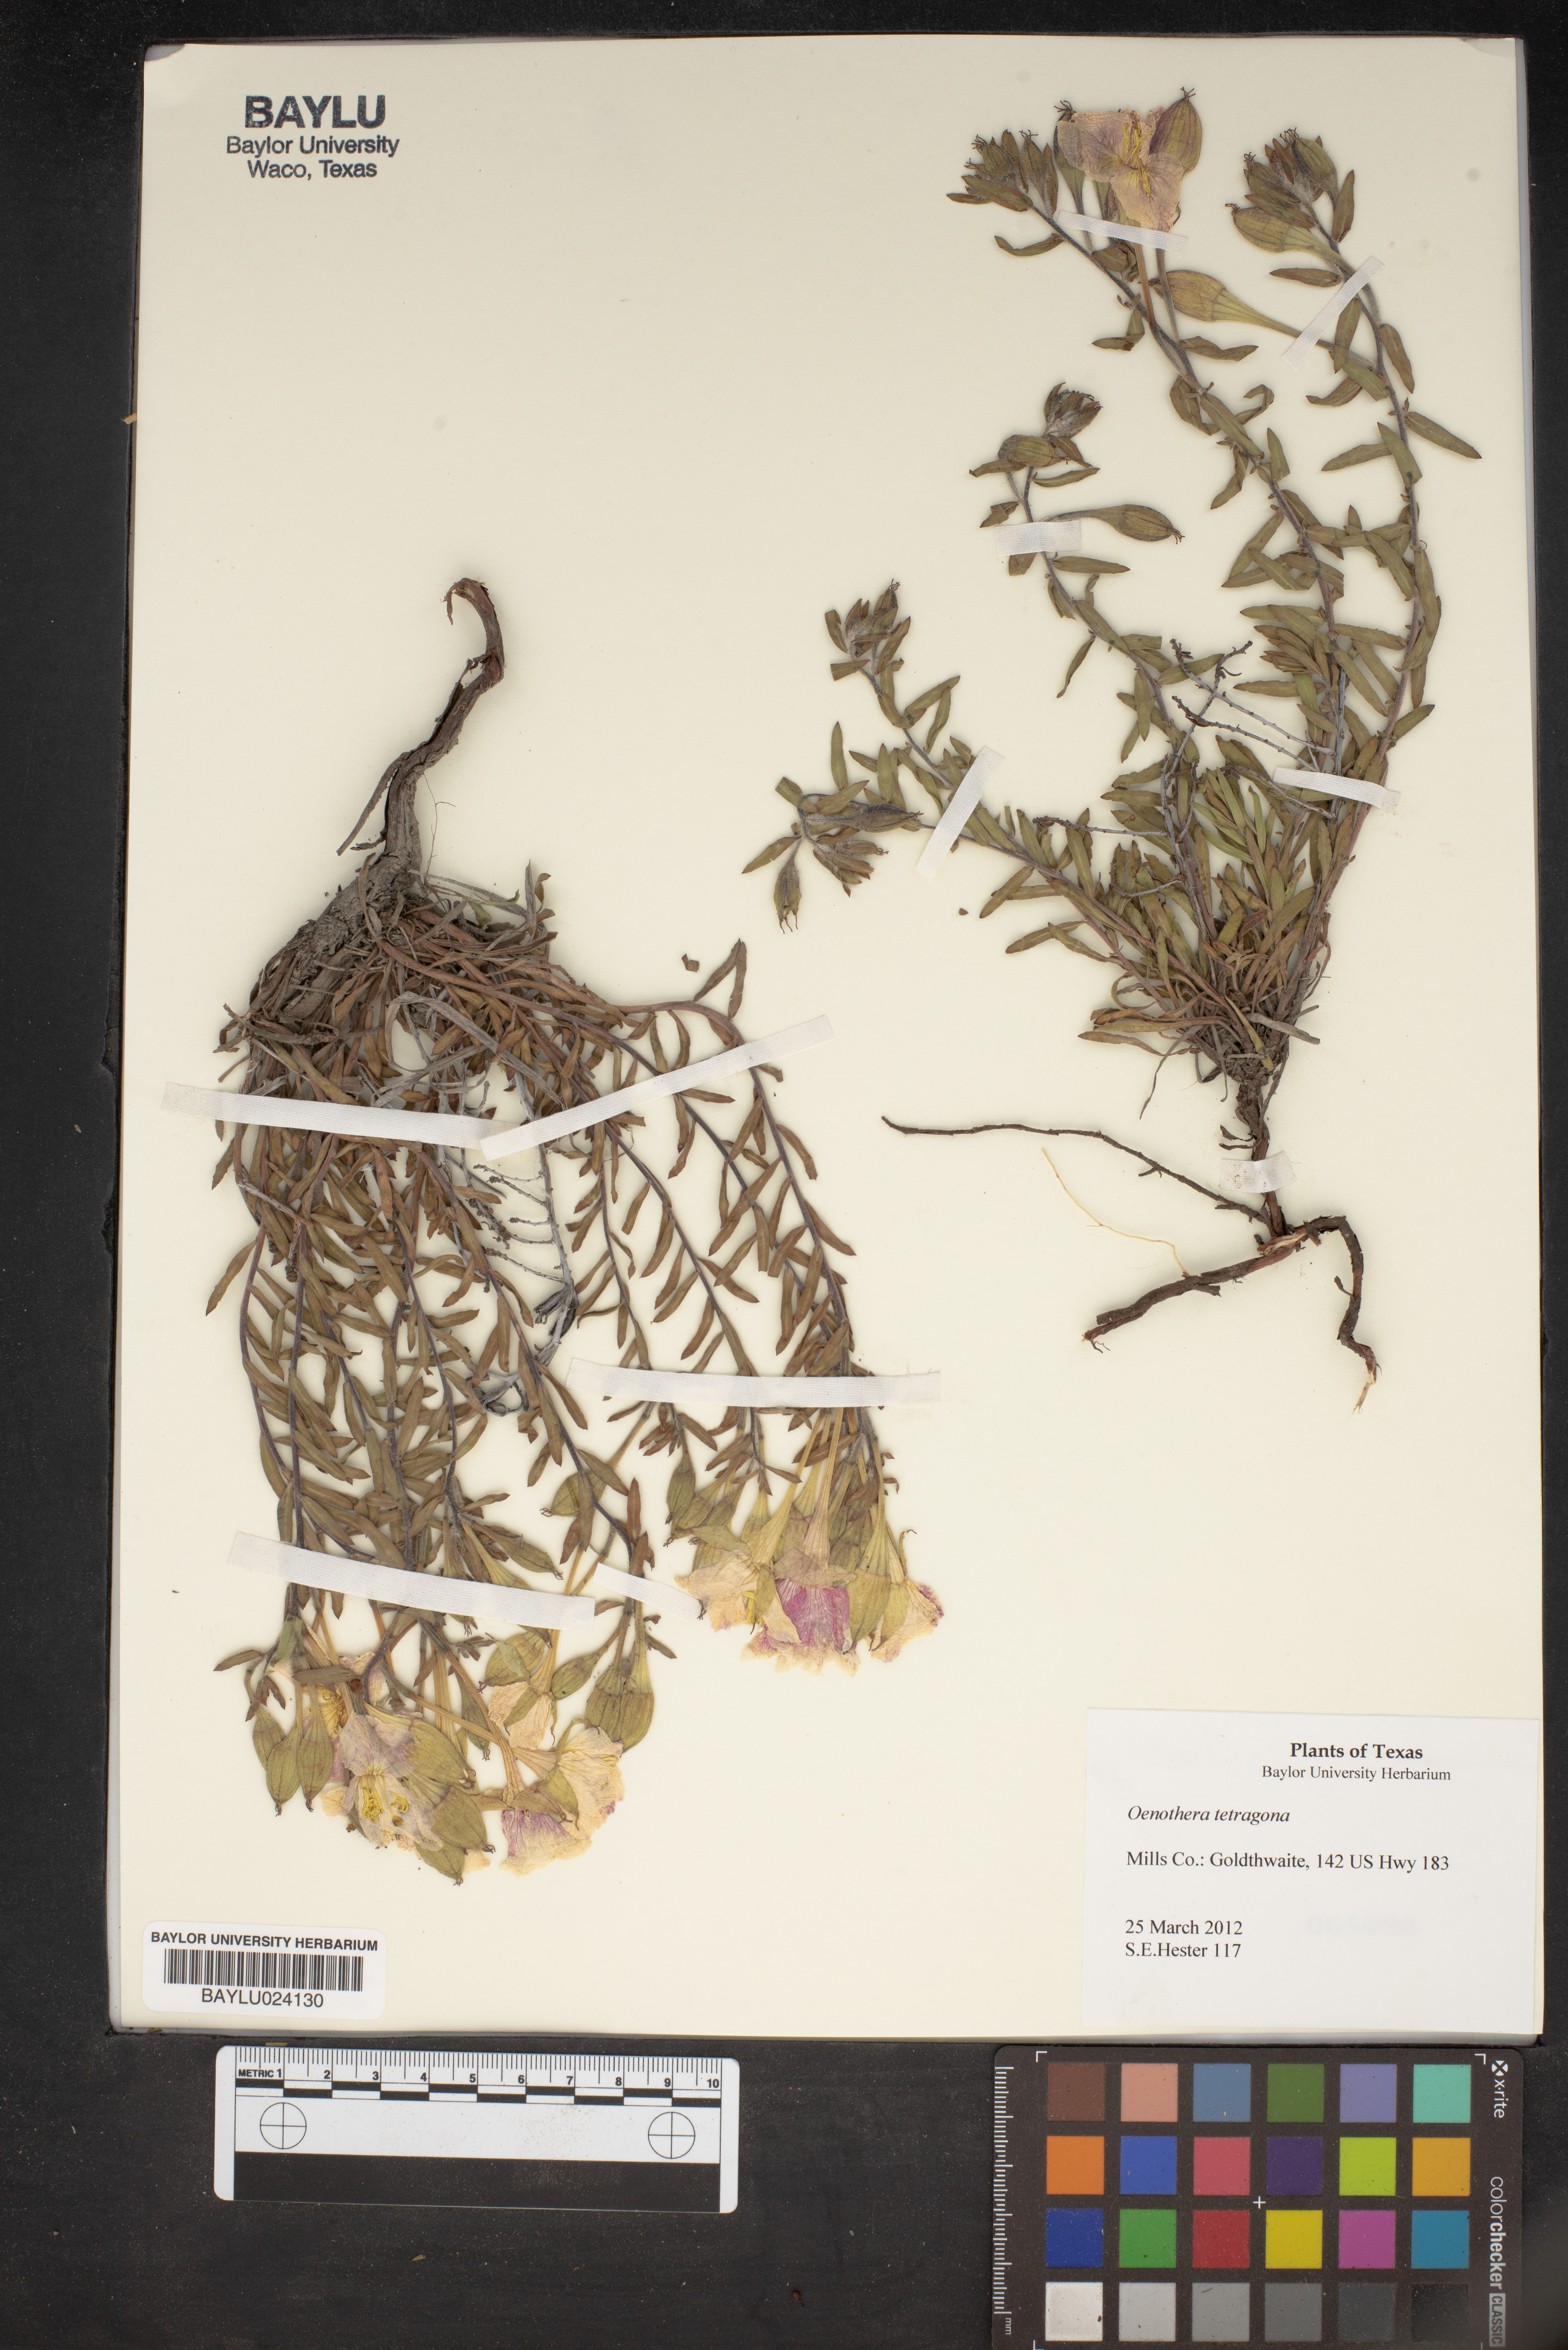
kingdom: Plantae
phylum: Tracheophyta
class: Magnoliopsida
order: Myrtales
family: Onagraceae
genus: Oenothera
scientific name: Oenothera tetragona
